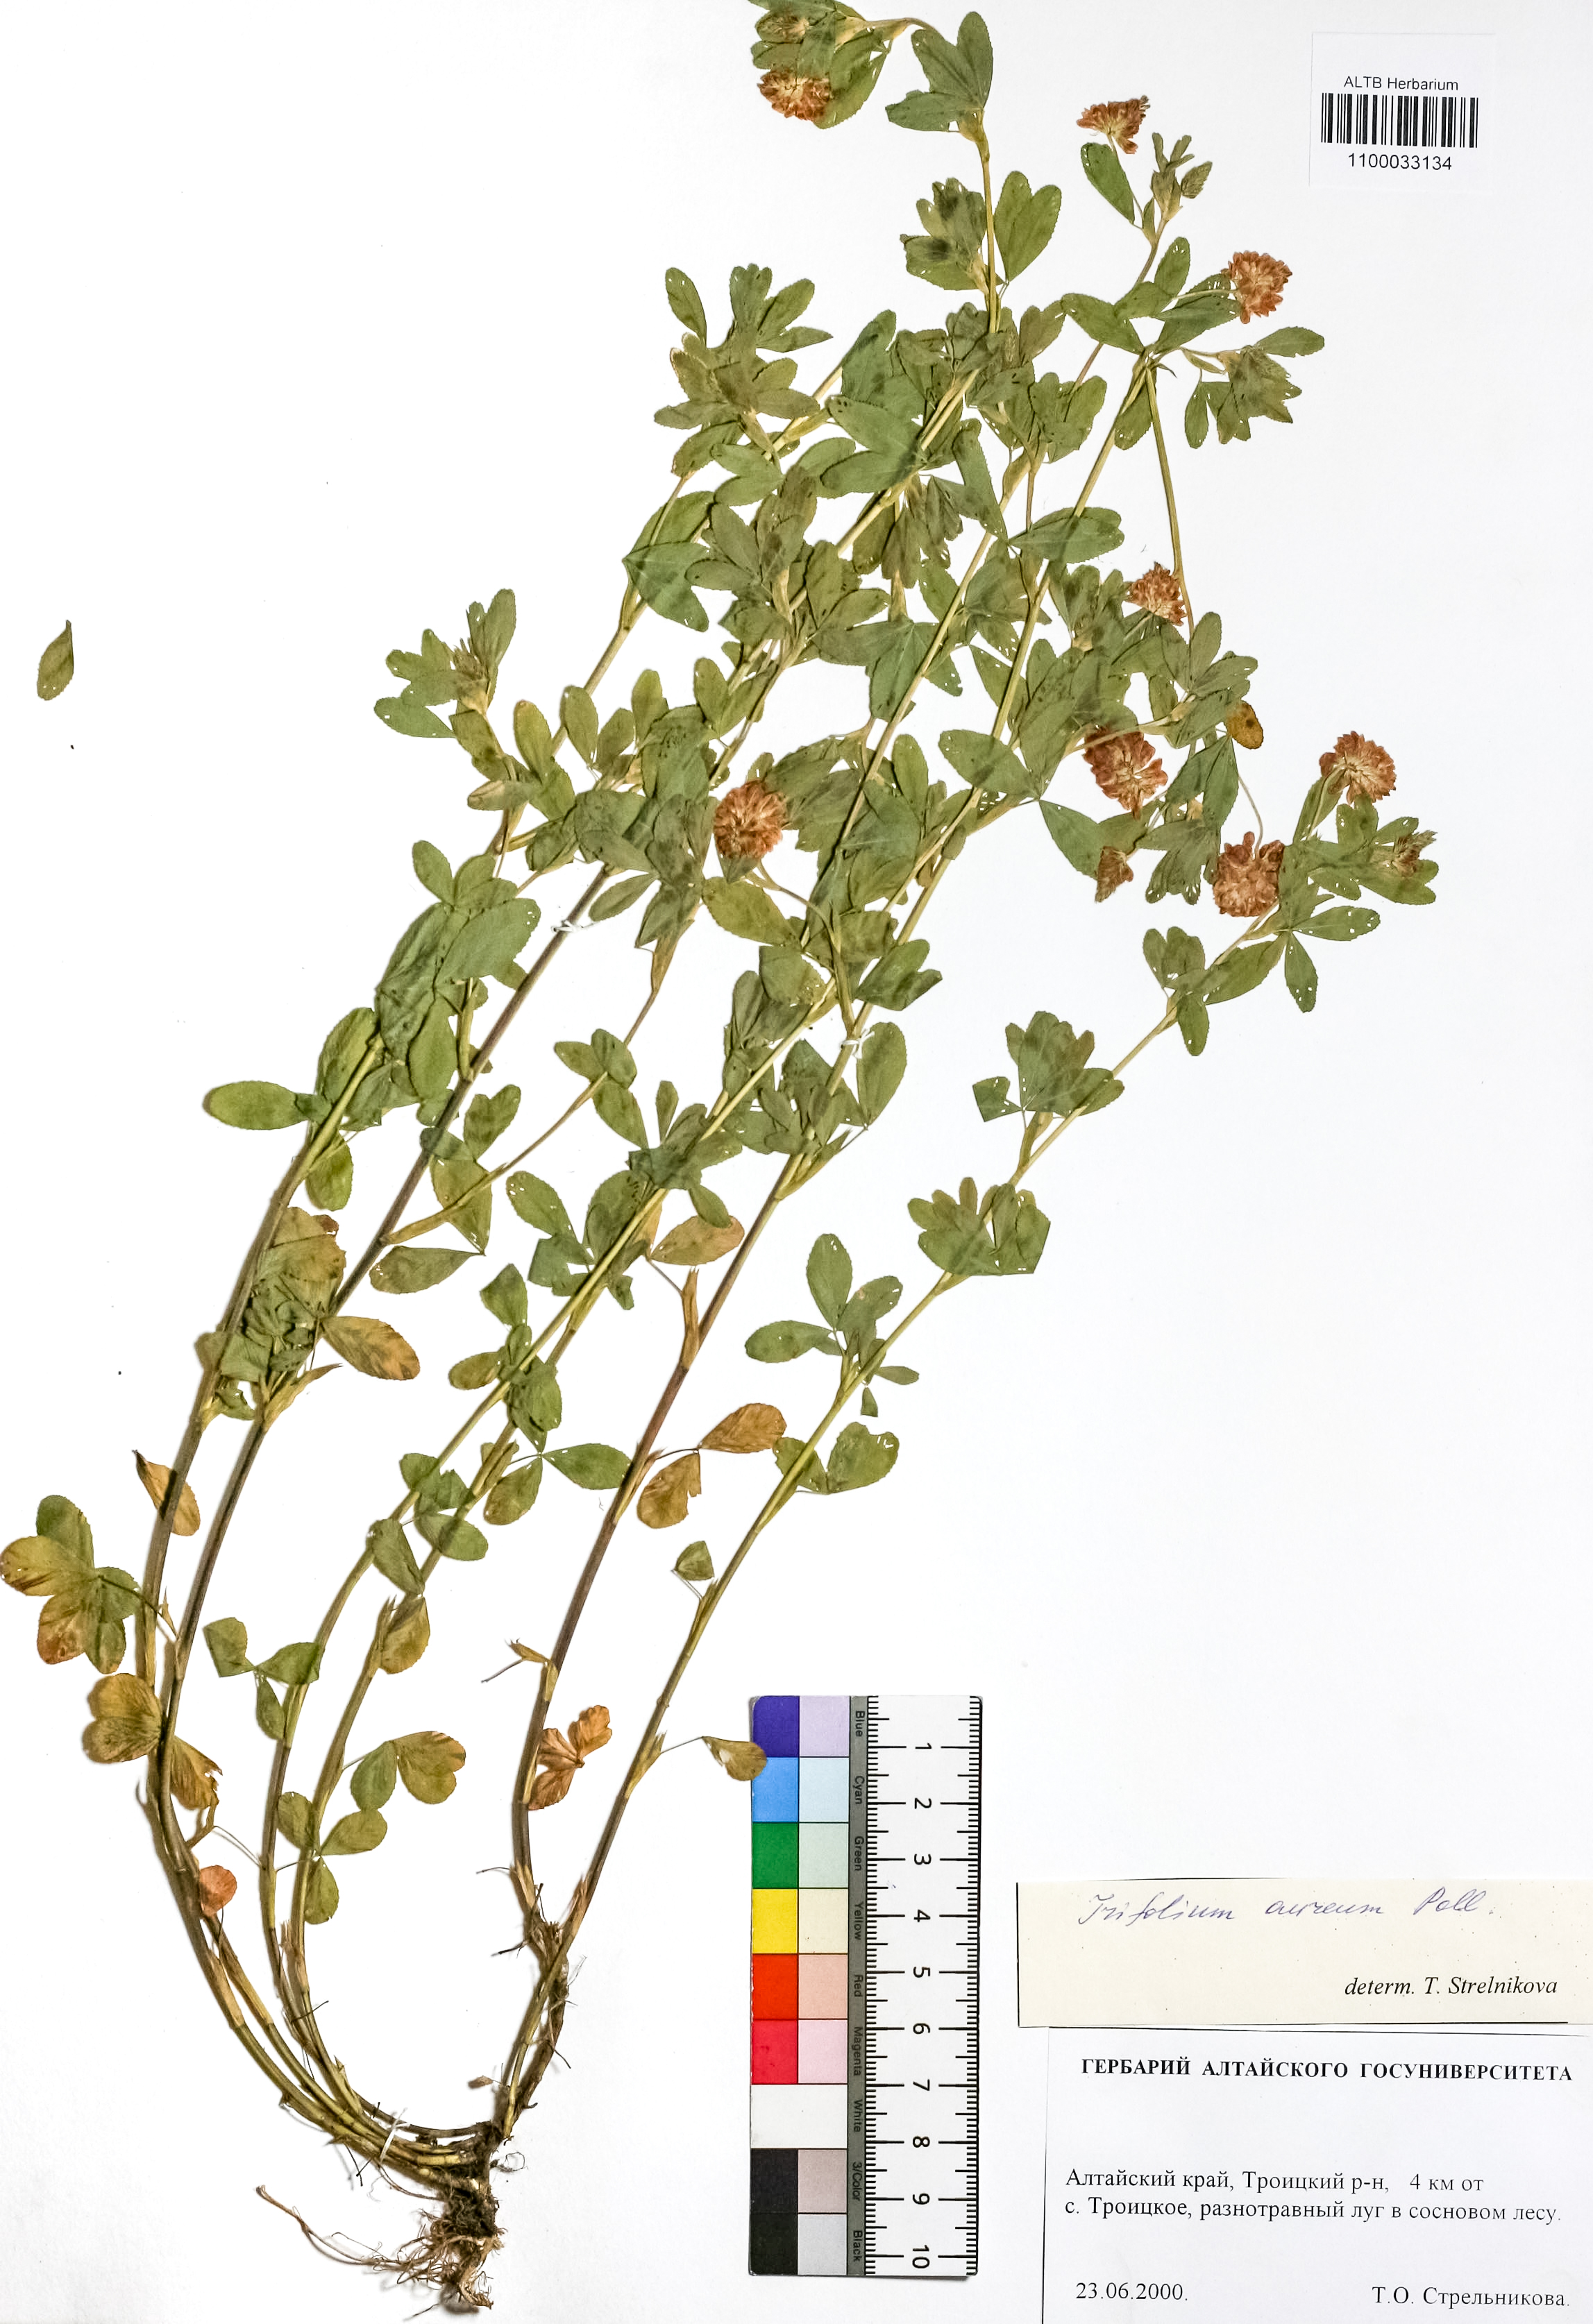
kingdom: Plantae
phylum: Tracheophyta
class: Magnoliopsida
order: Fabales
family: Fabaceae
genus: Trifolium
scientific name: Trifolium aureum
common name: Golden clover
